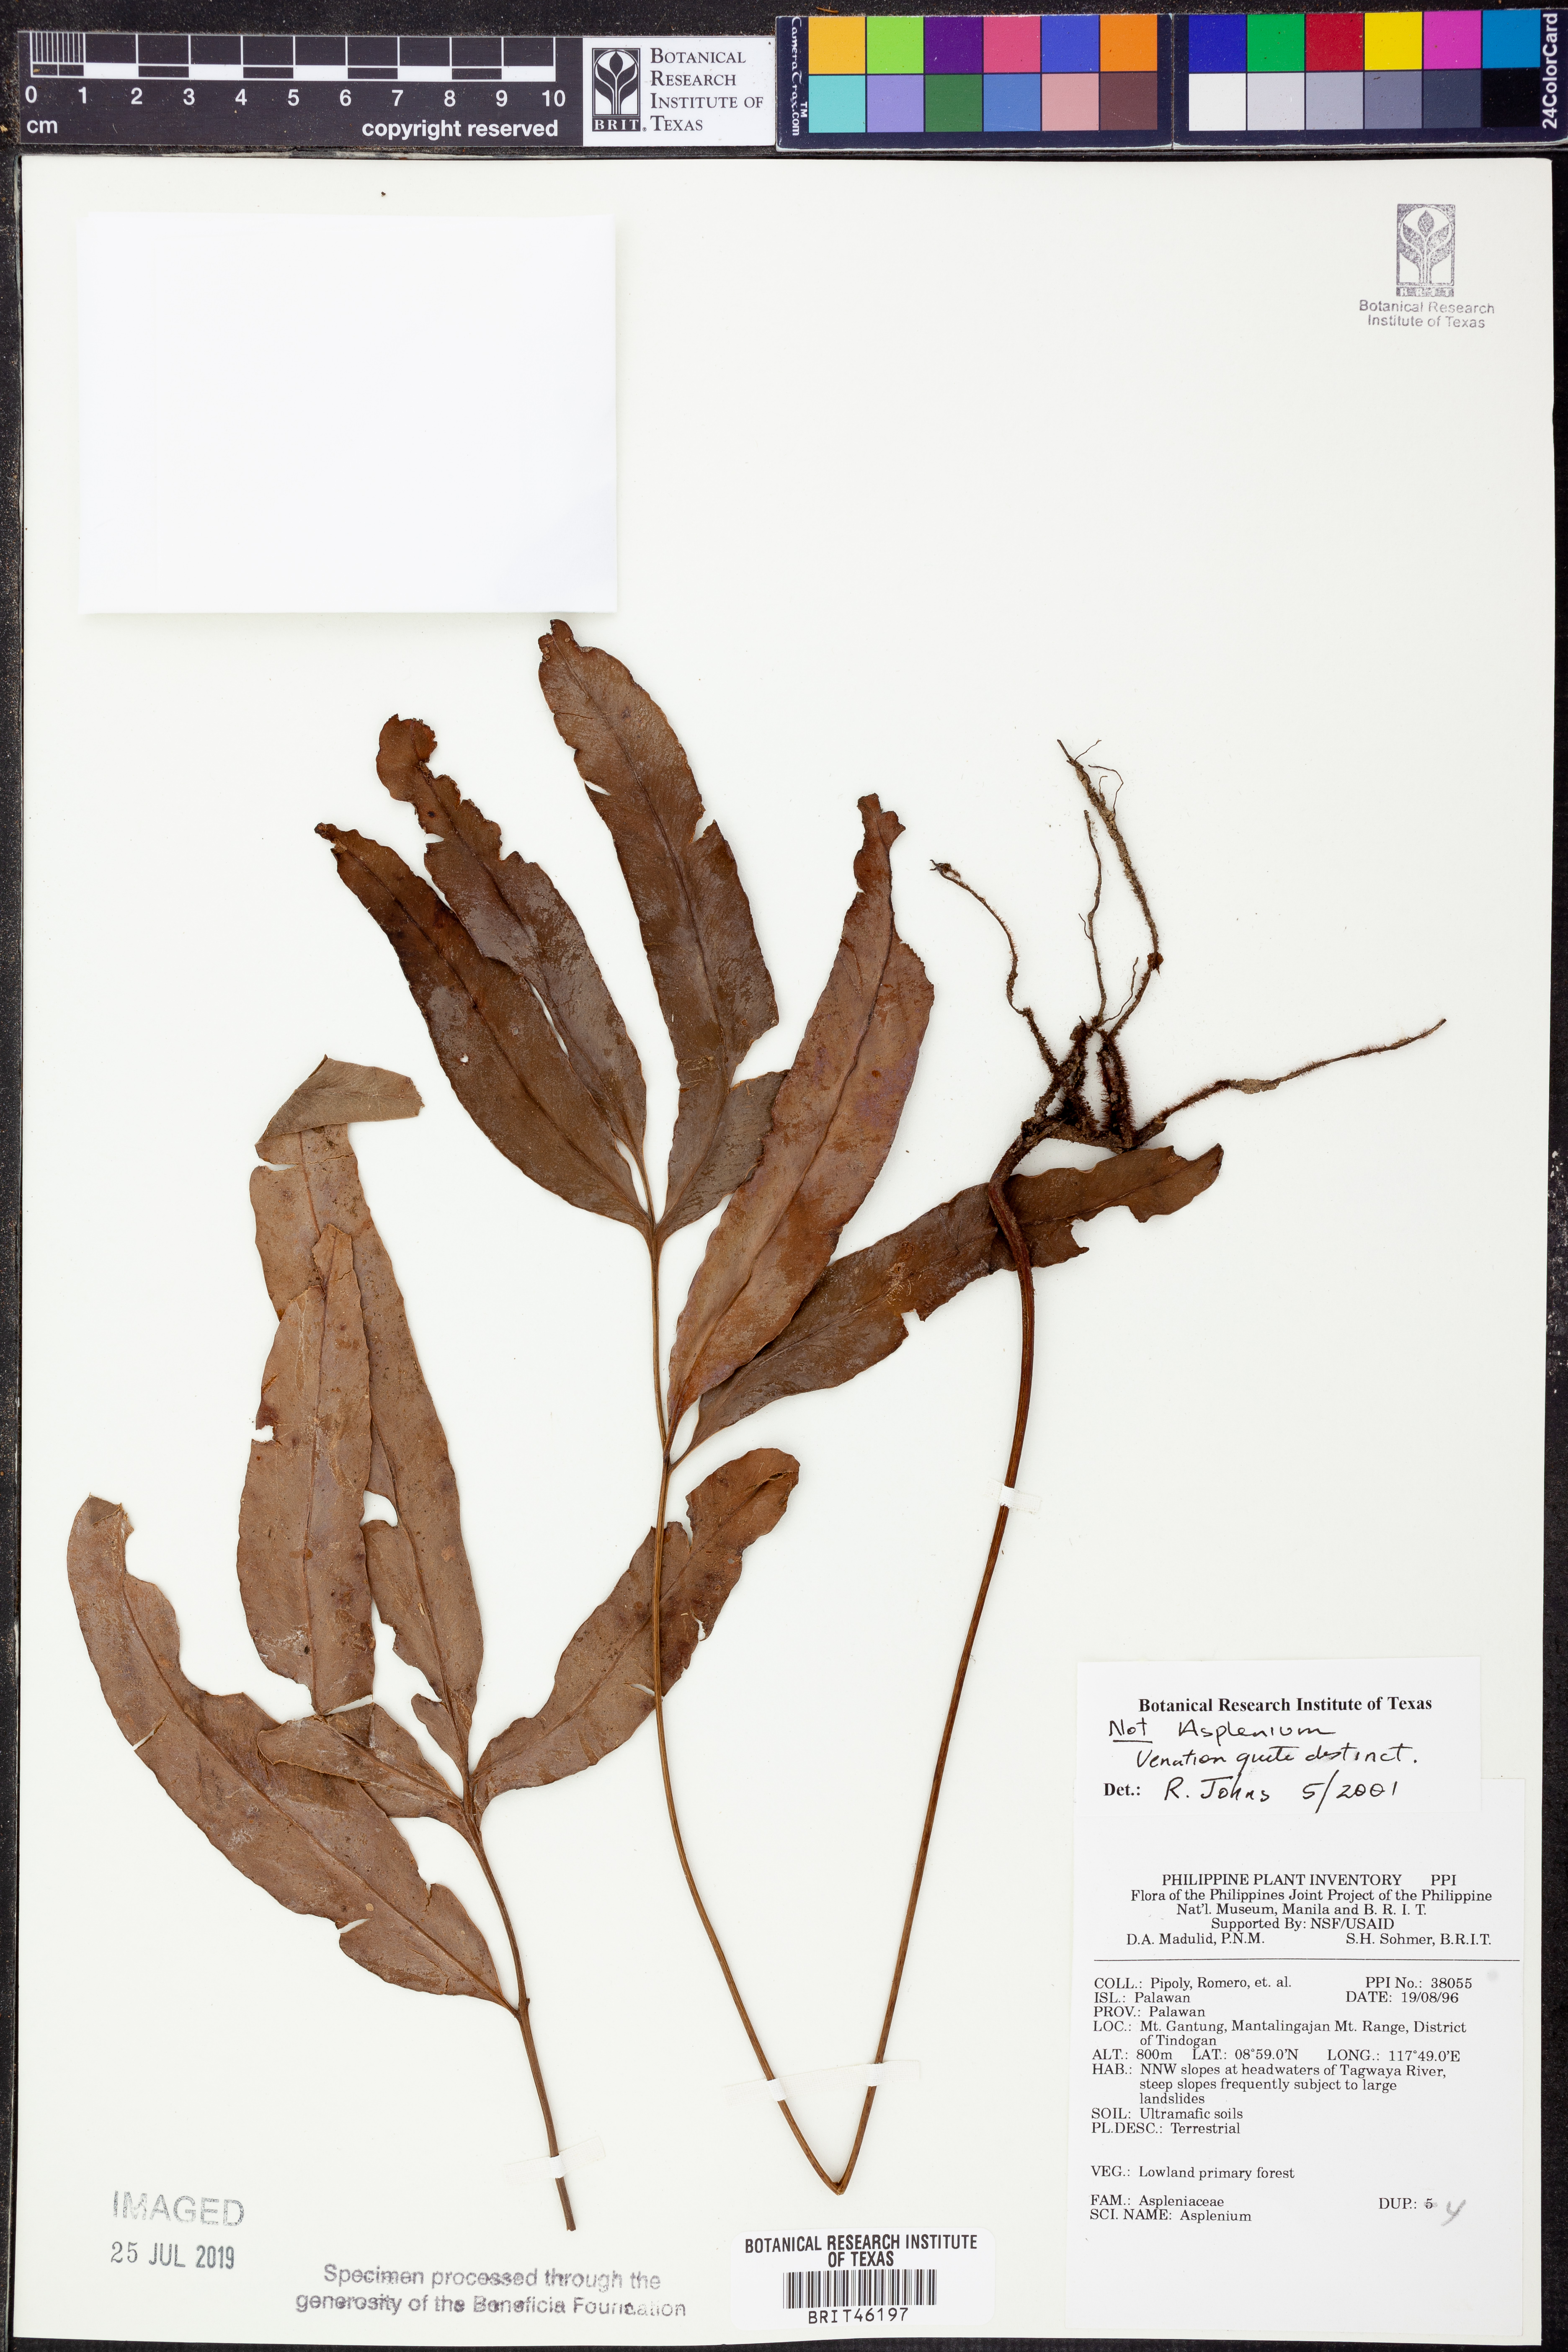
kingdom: Plantae
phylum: Tracheophyta
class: Polypodiopsida
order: Polypodiales
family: Aspleniaceae
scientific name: Aspleniaceae
